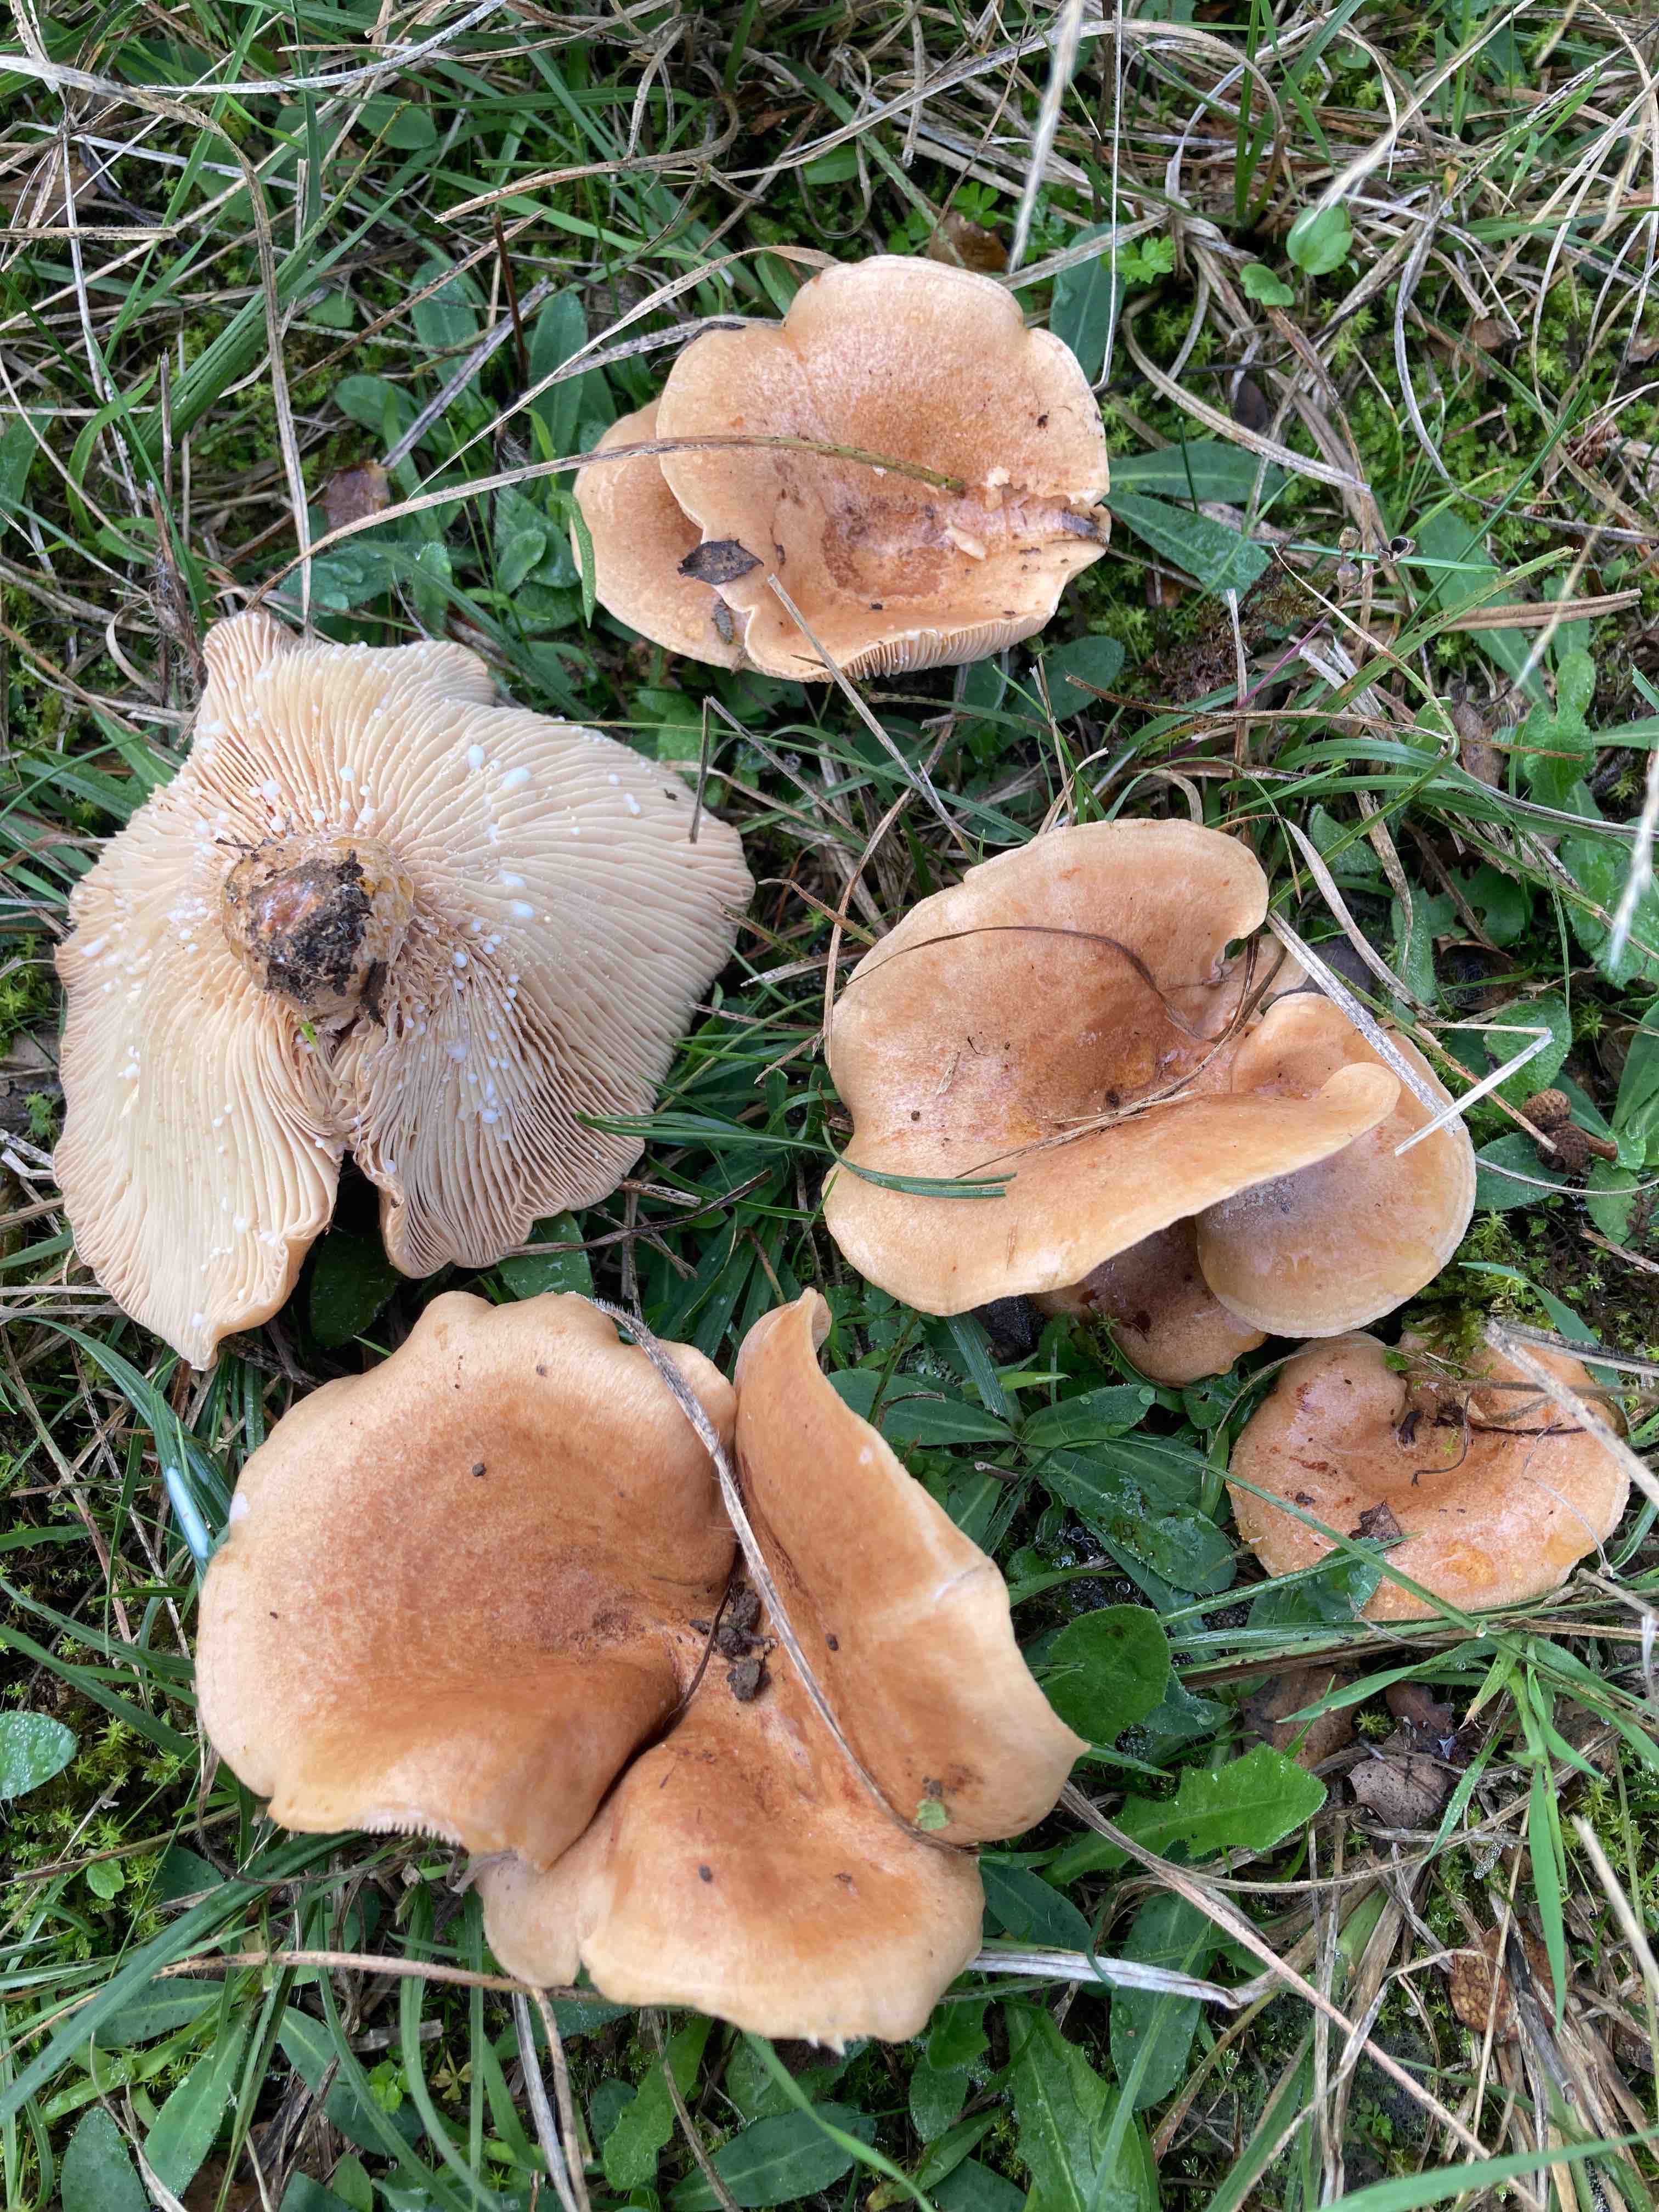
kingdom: Fungi
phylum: Basidiomycota
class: Agaricomycetes
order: Russulales
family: Russulaceae
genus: Lactarius
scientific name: Lactarius acerrimus
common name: brændende mælkehat
